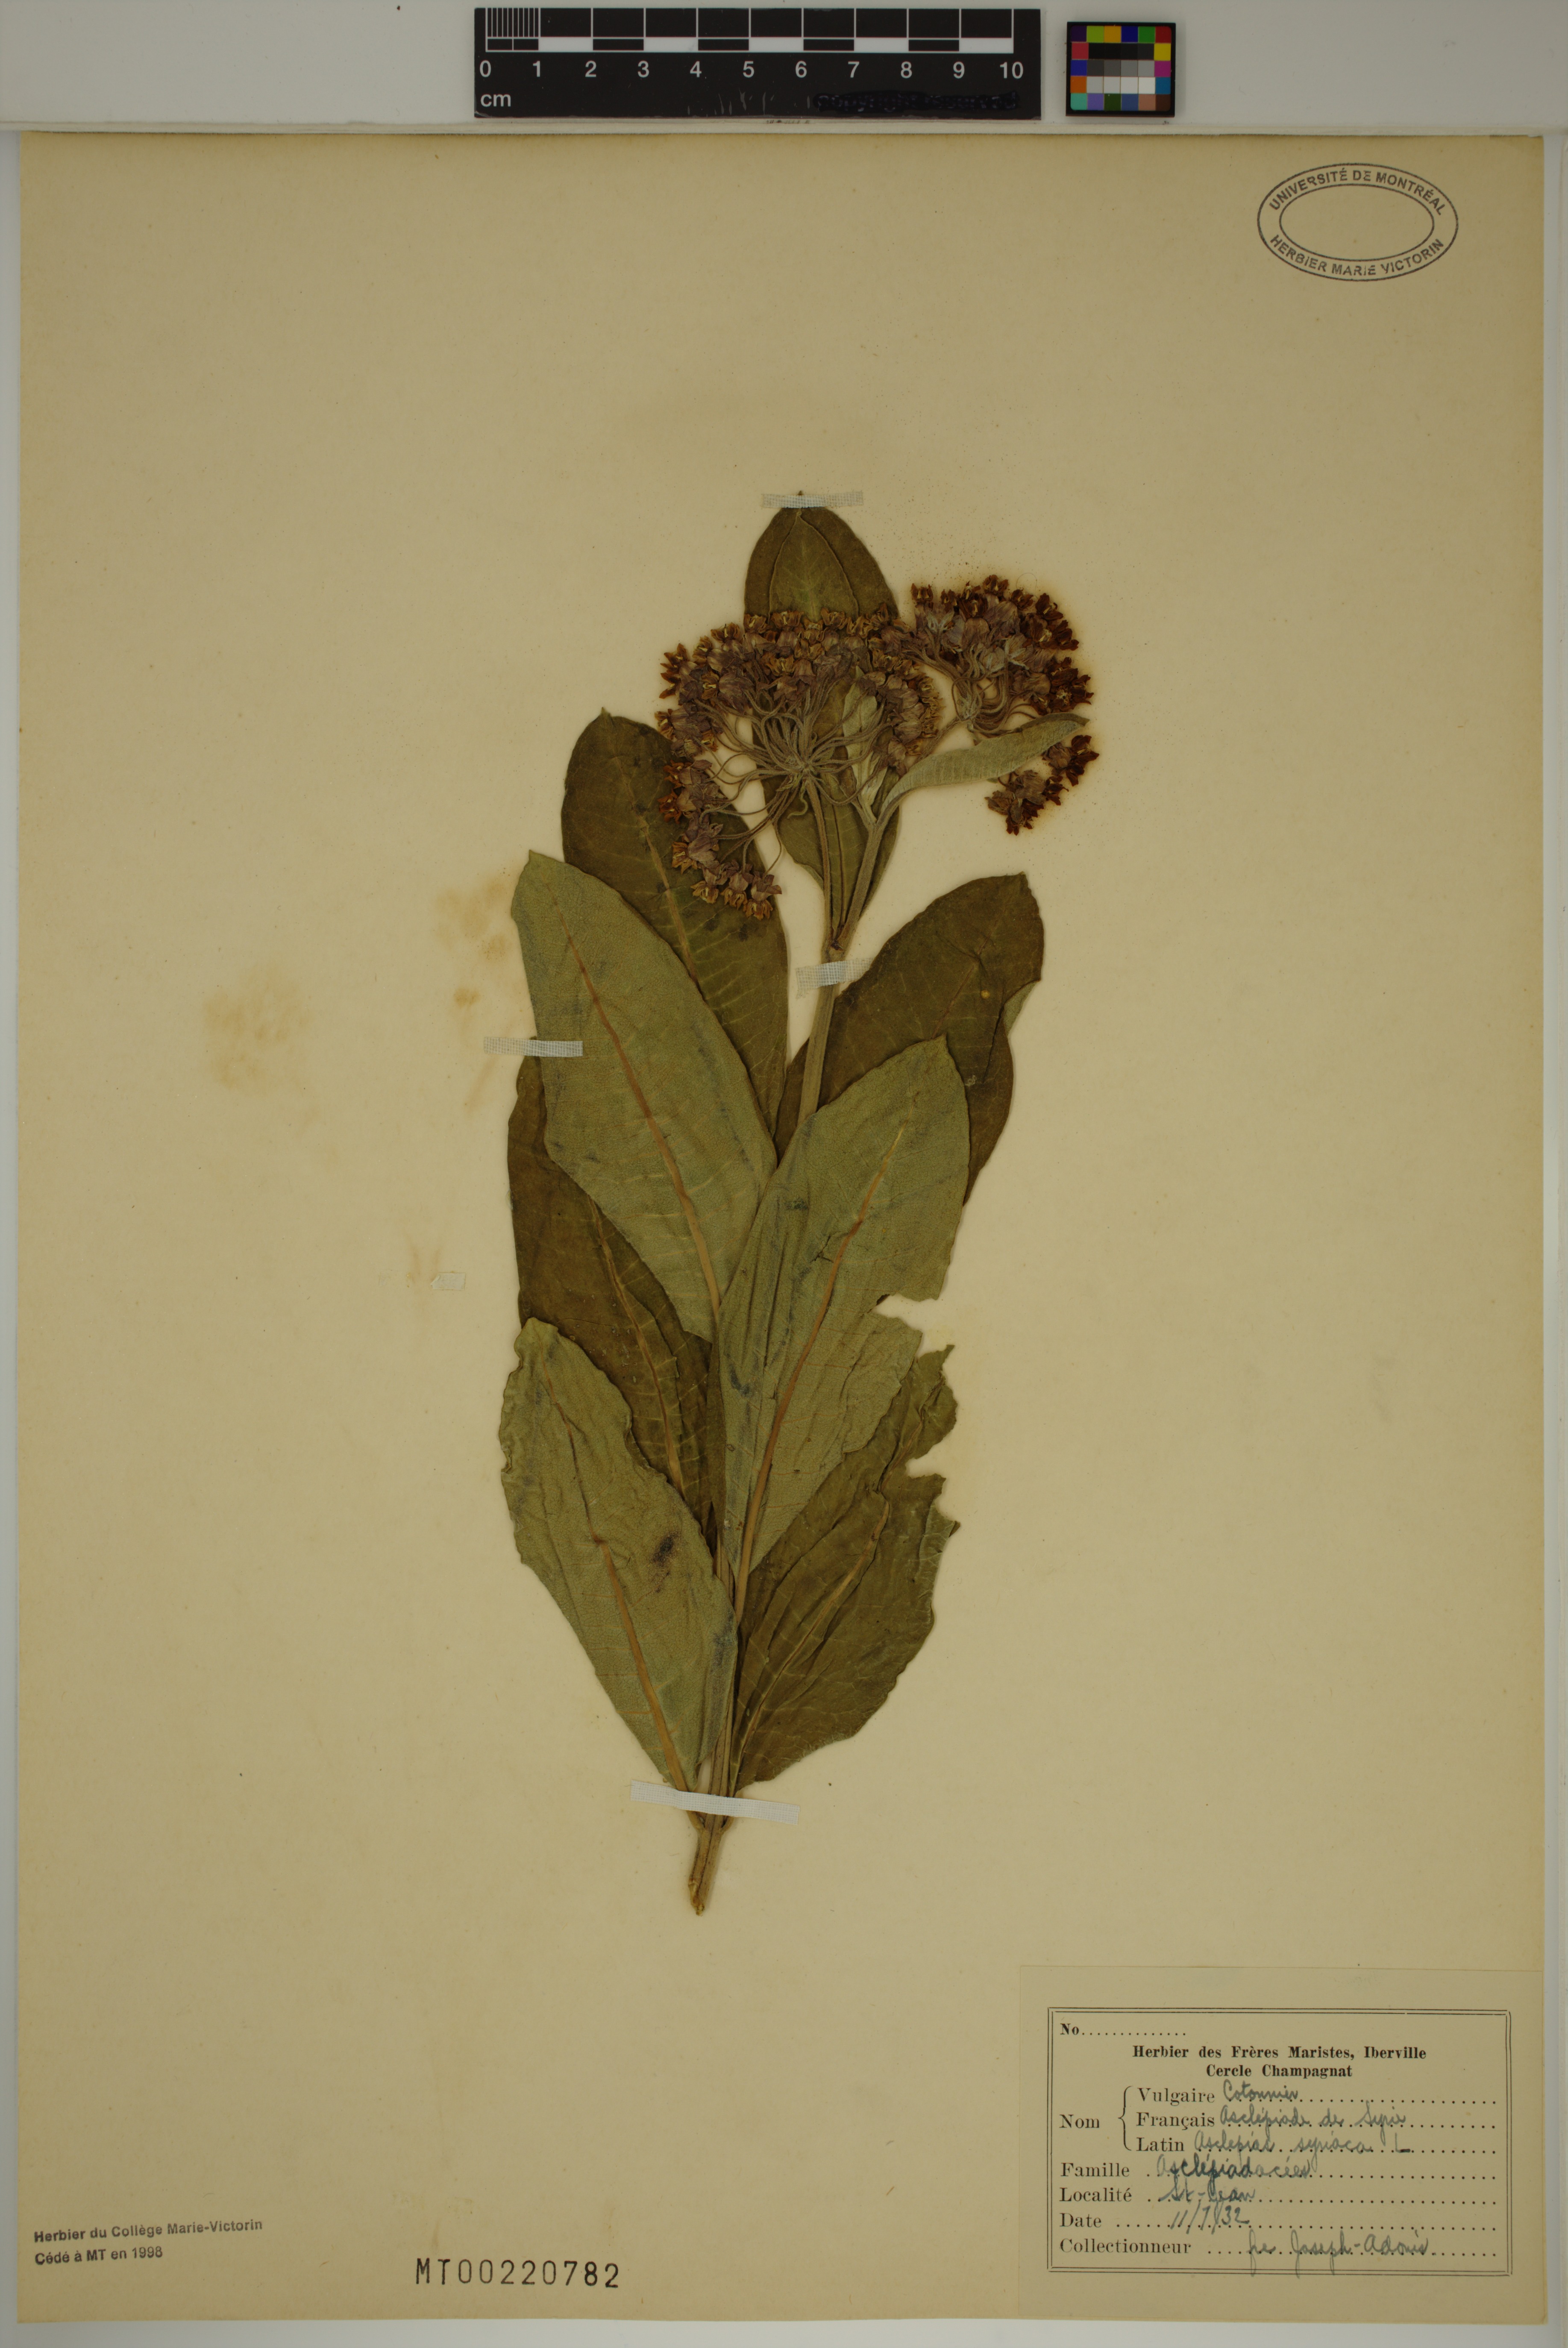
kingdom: Plantae
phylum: Tracheophyta
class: Magnoliopsida
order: Gentianales
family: Apocynaceae
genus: Asclepias
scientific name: Asclepias syriaca
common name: Common milkweed
